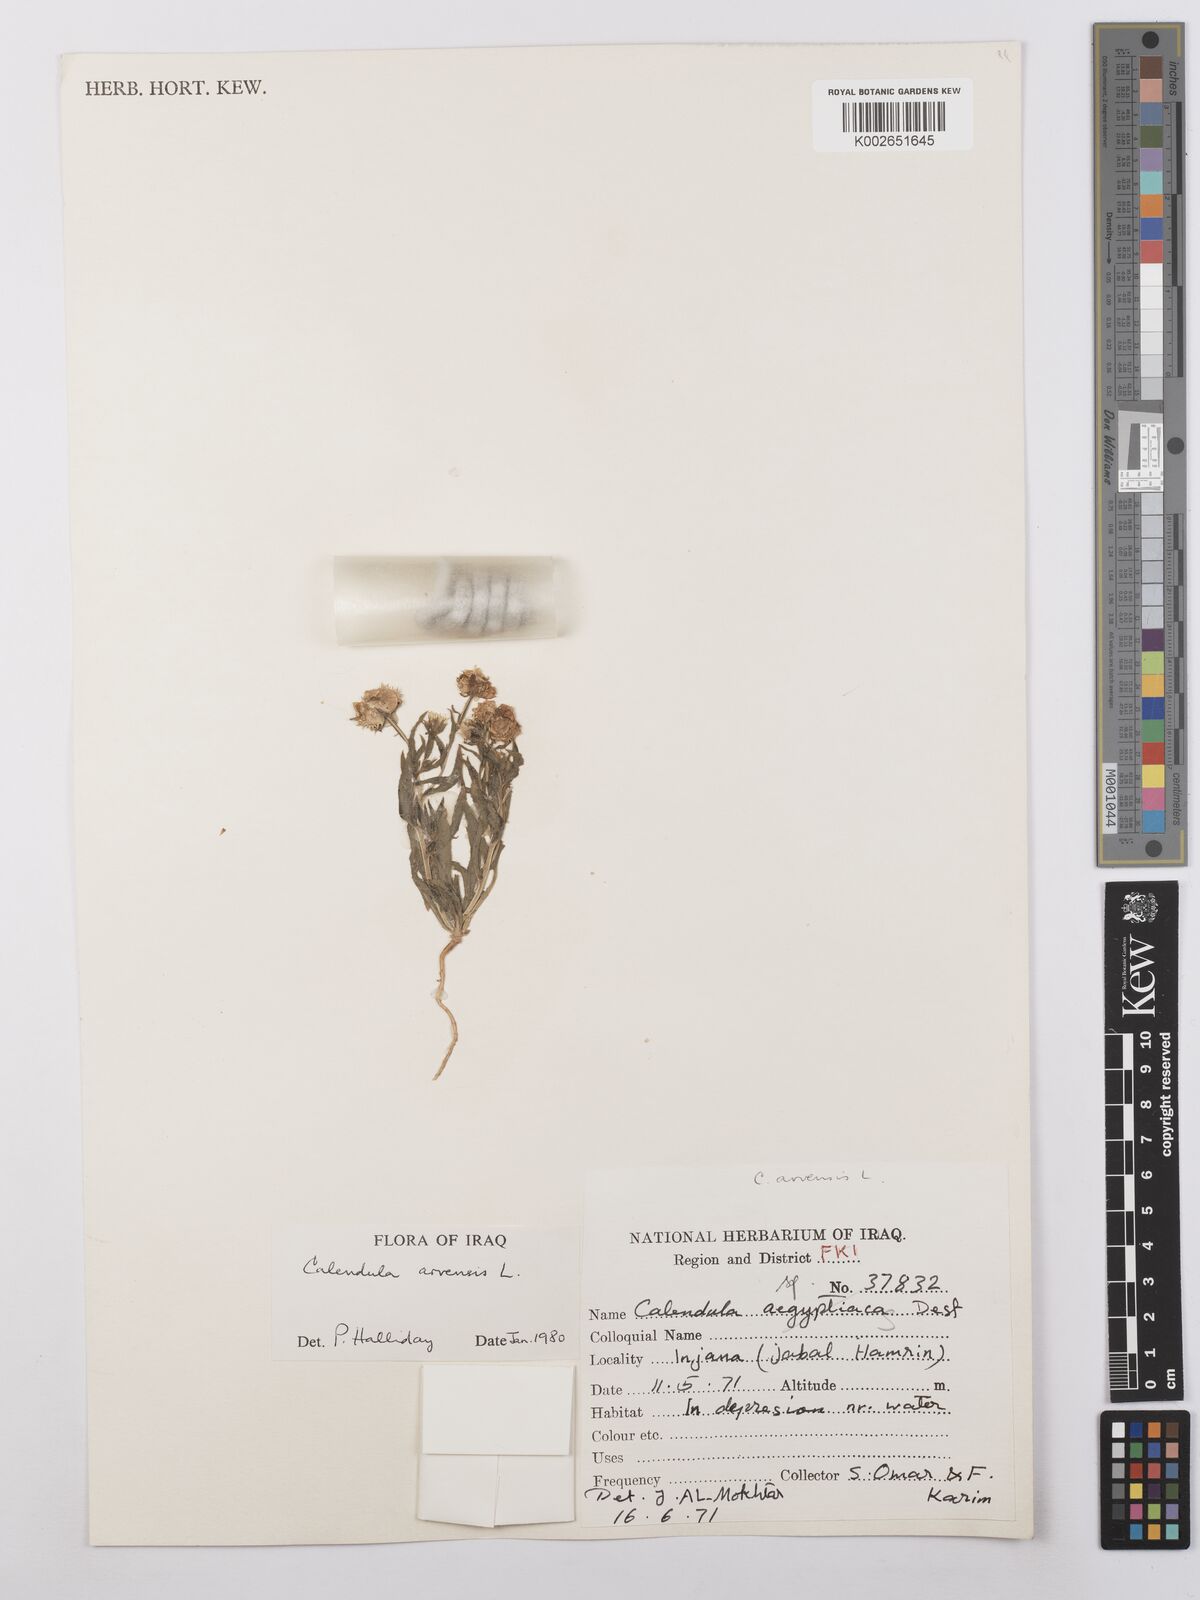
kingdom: Plantae
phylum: Tracheophyta
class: Magnoliopsida
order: Asterales
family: Asteraceae
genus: Calendula
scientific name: Calendula arvensis
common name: Field marigold
